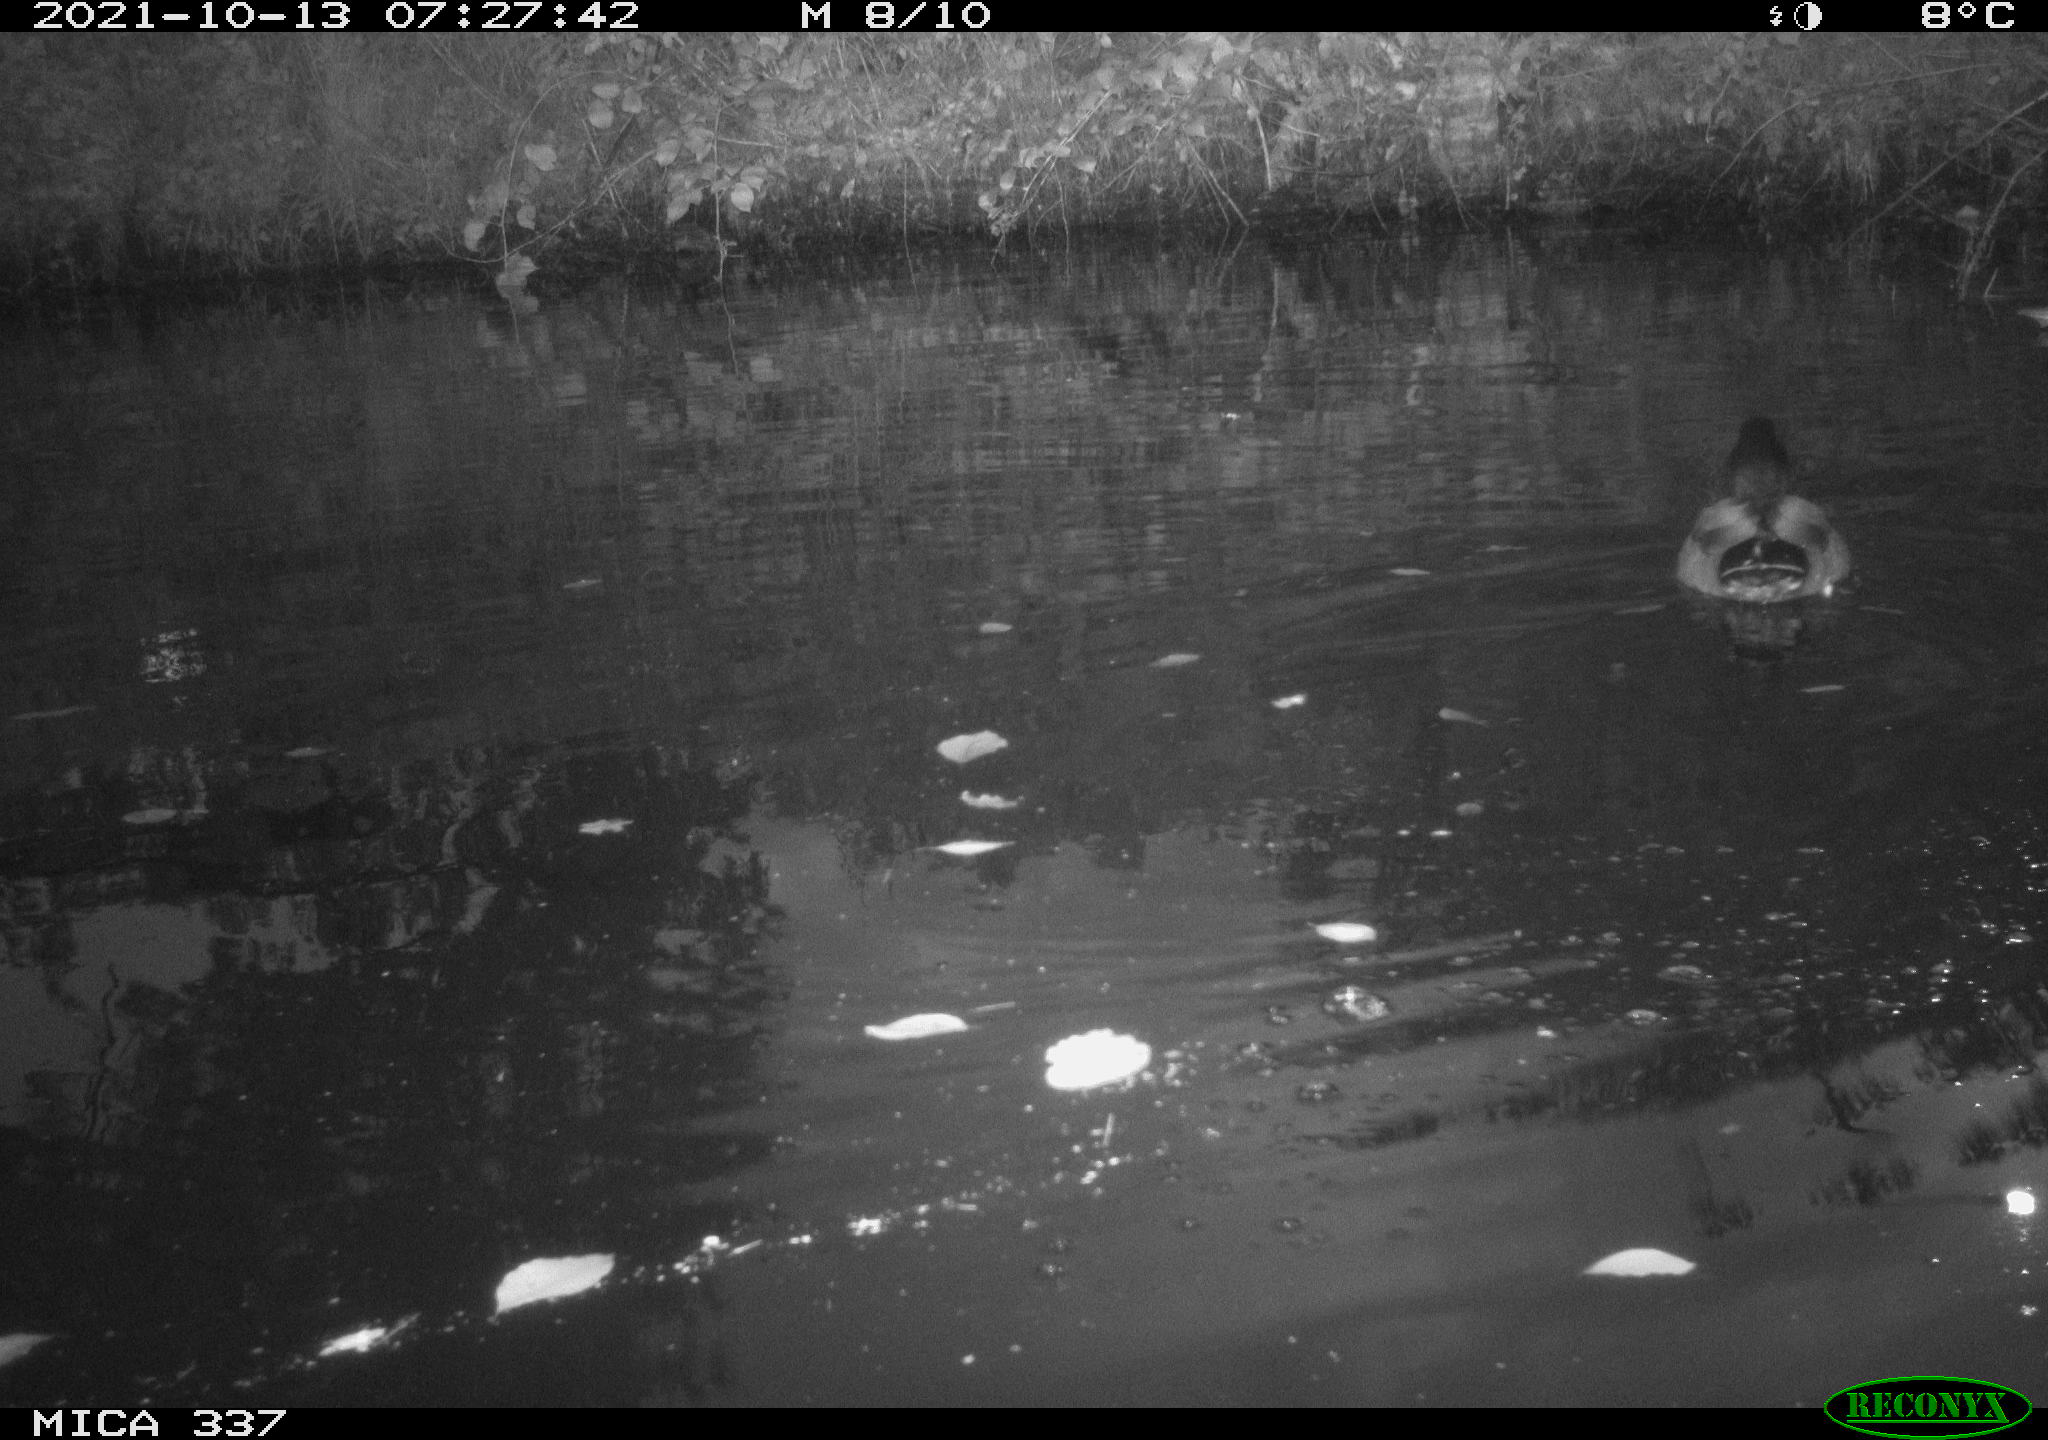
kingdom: Animalia
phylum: Chordata
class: Aves
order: Anseriformes
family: Anatidae
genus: Anas
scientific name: Anas platyrhynchos
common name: Mallard
